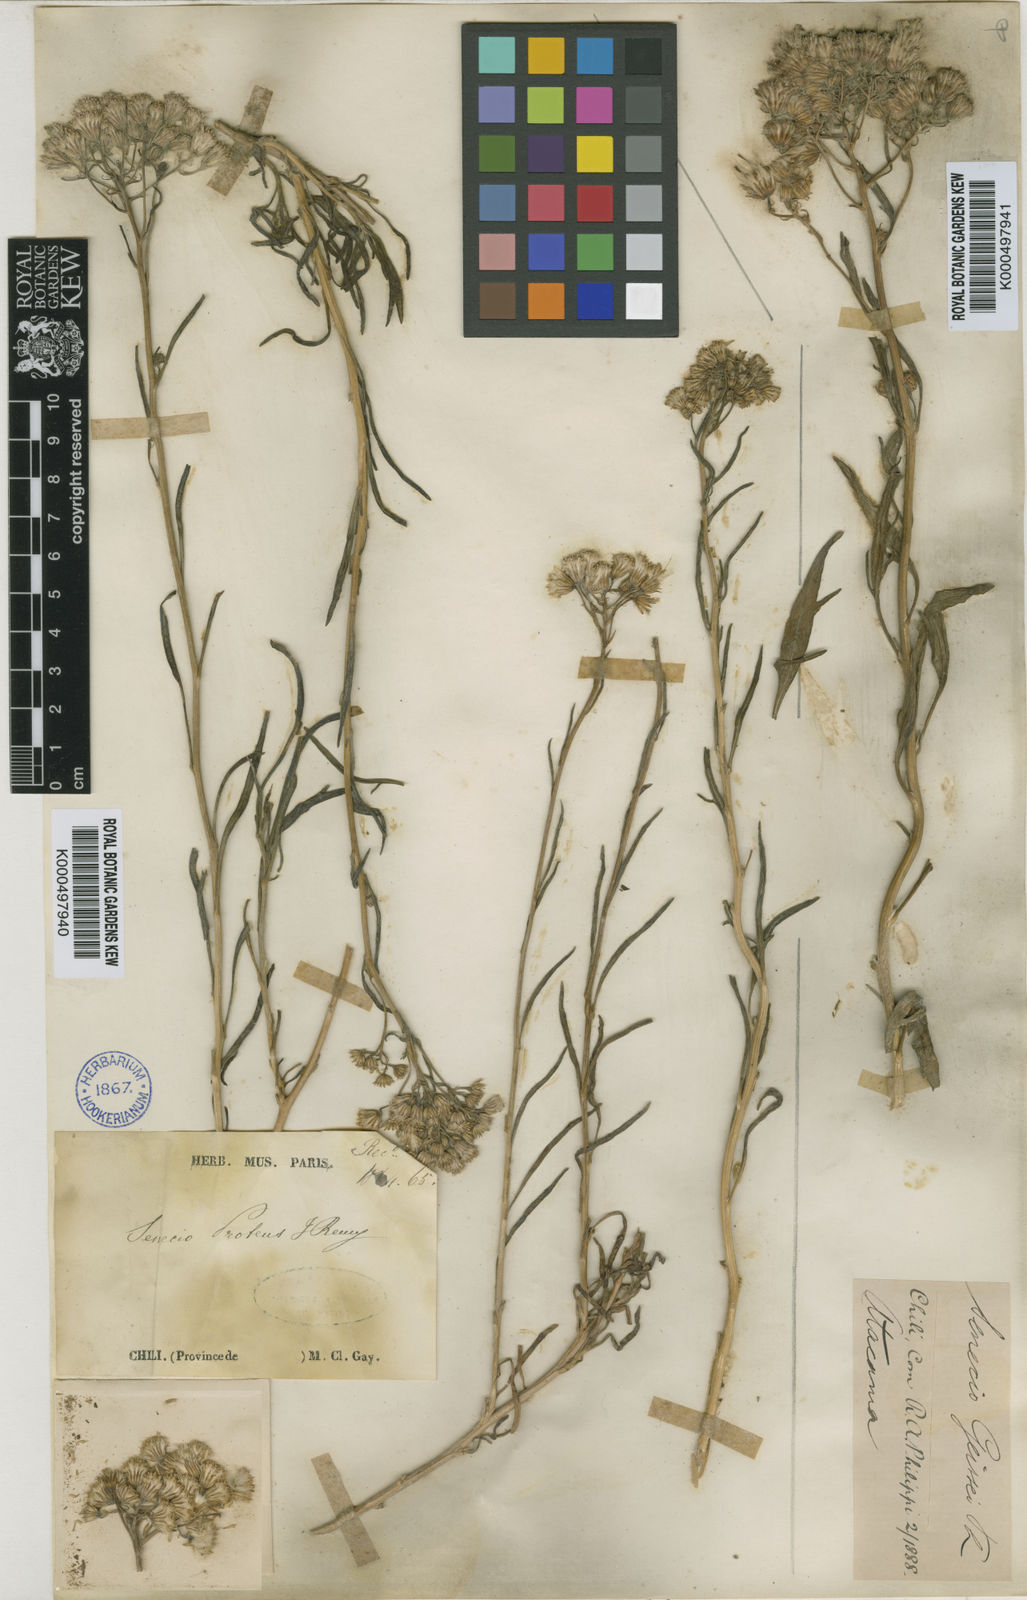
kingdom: Plantae
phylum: Tracheophyta
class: Magnoliopsida
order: Asterales
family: Asteraceae
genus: Senecio
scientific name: Senecio proteus
